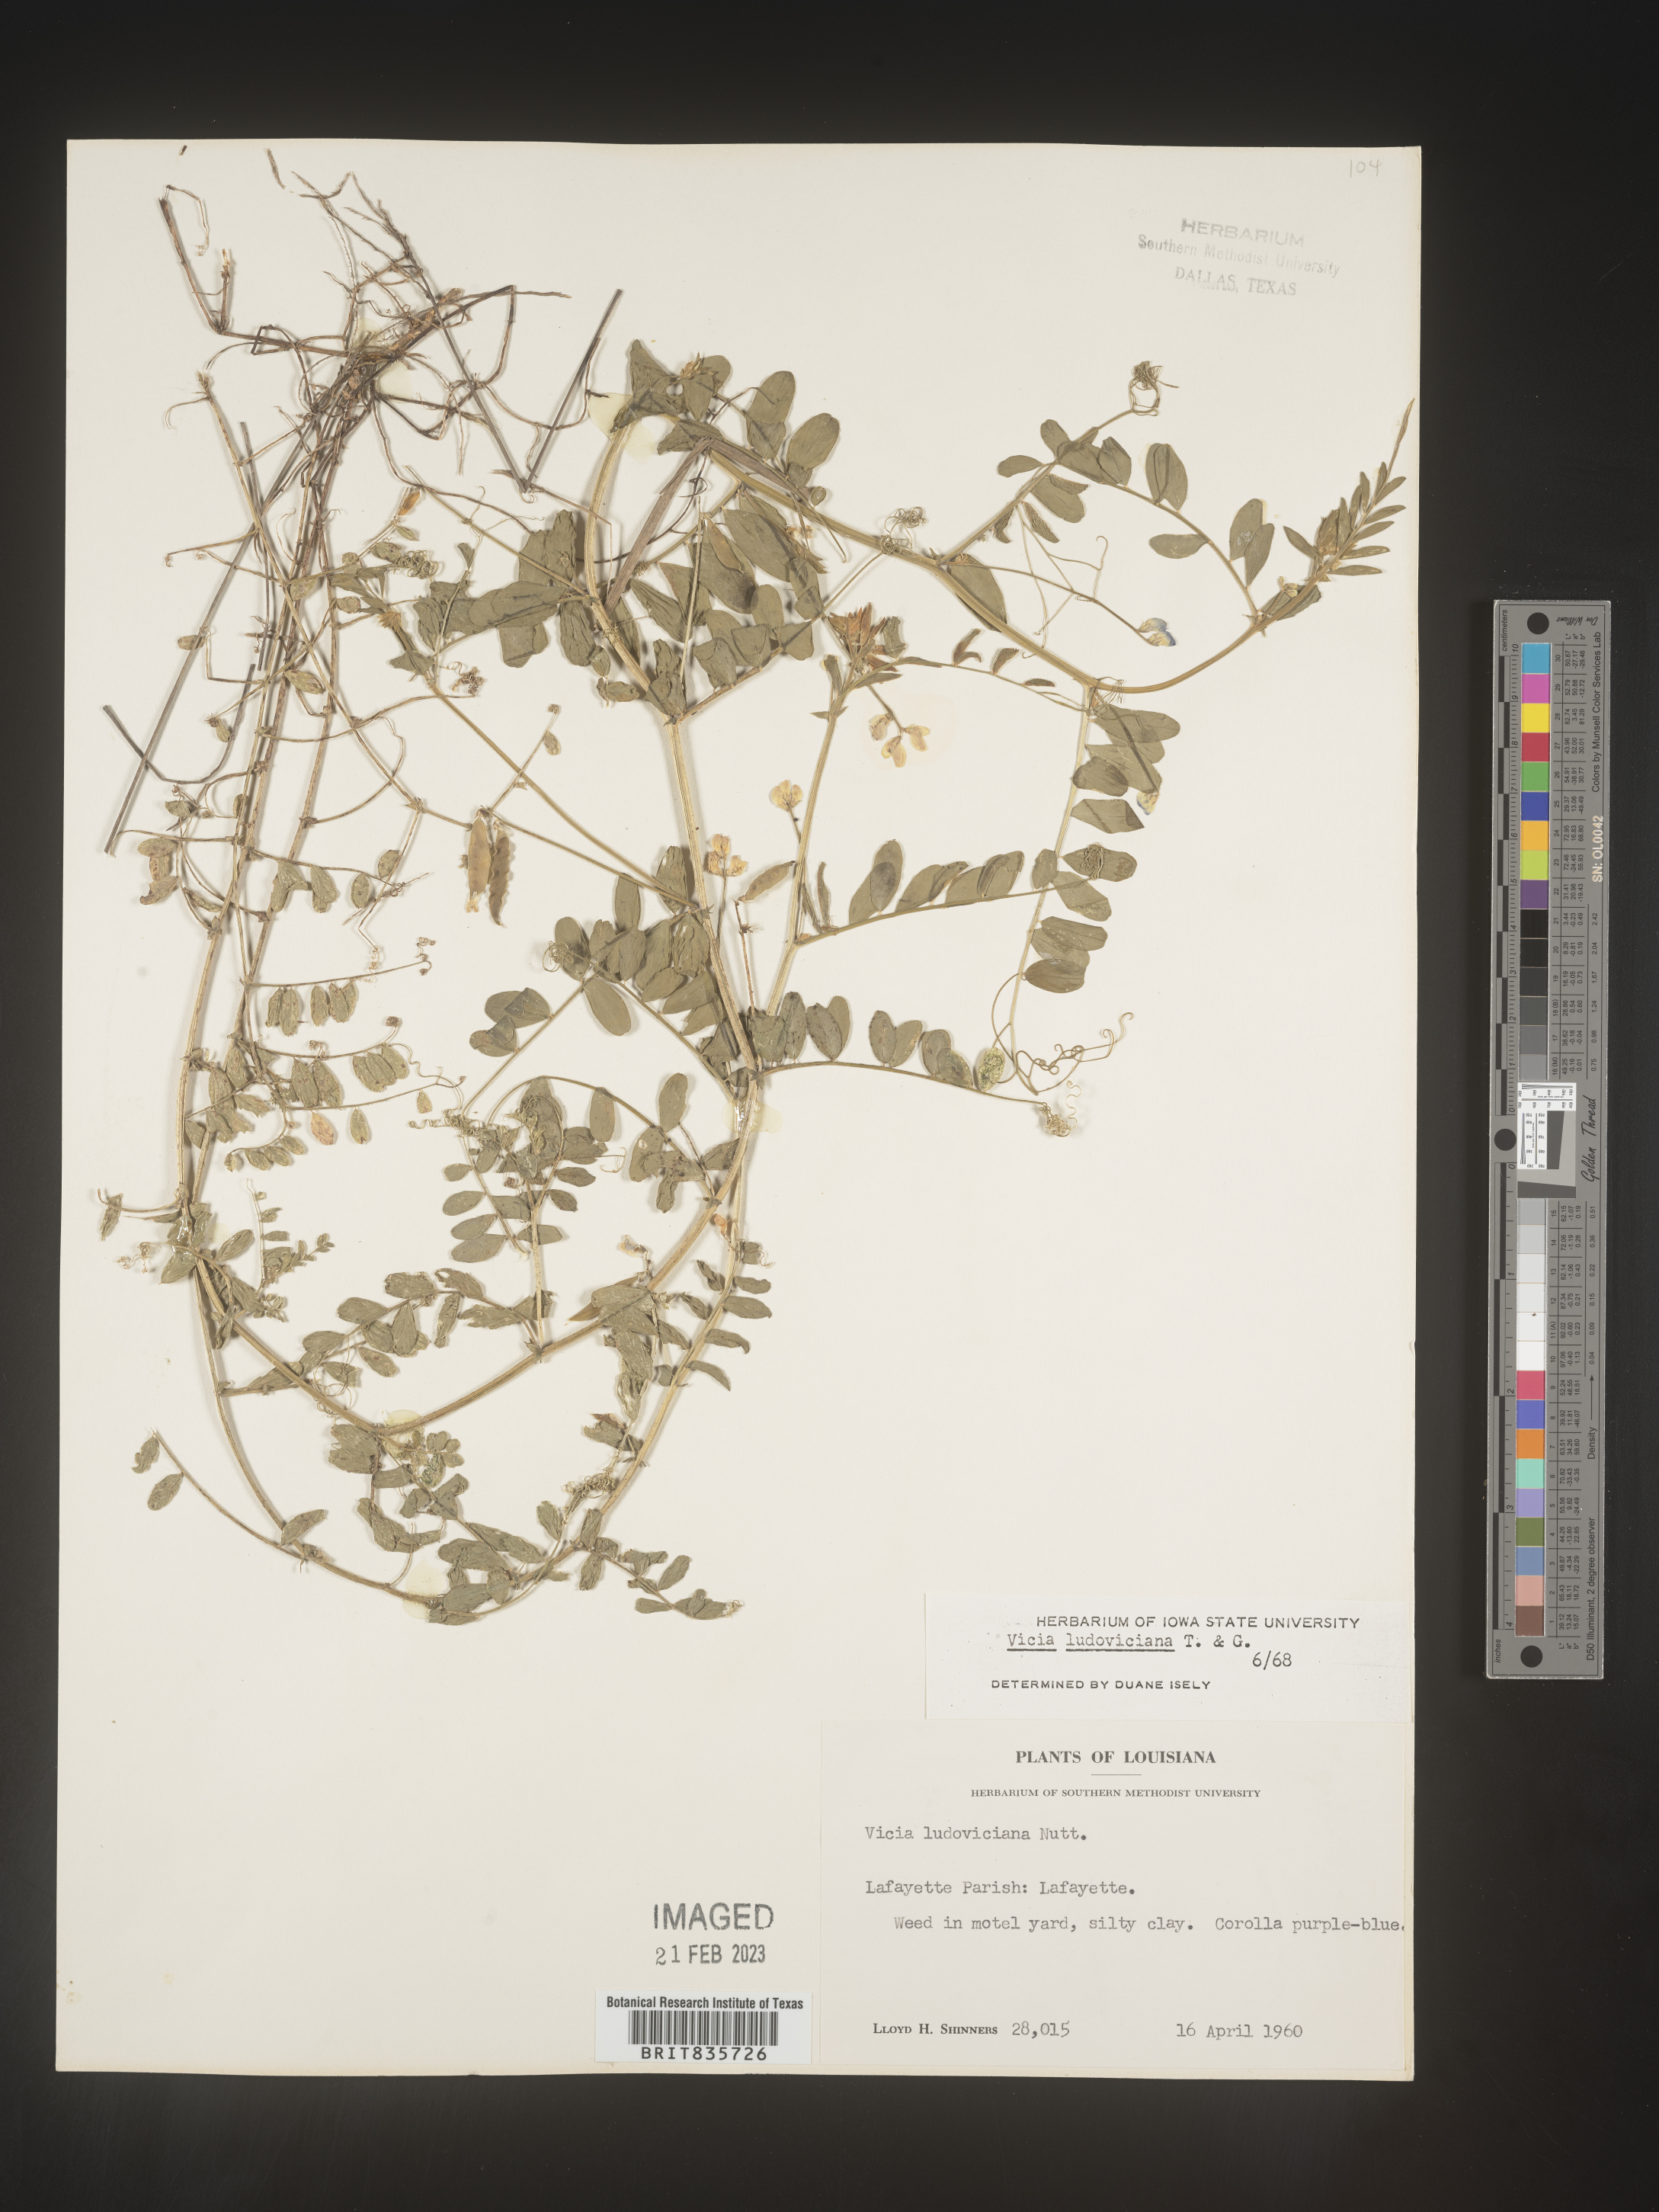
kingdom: Plantae
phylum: Tracheophyta
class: Magnoliopsida
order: Fabales
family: Fabaceae
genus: Vicia
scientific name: Vicia ludoviciana
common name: Louisiana vetch
